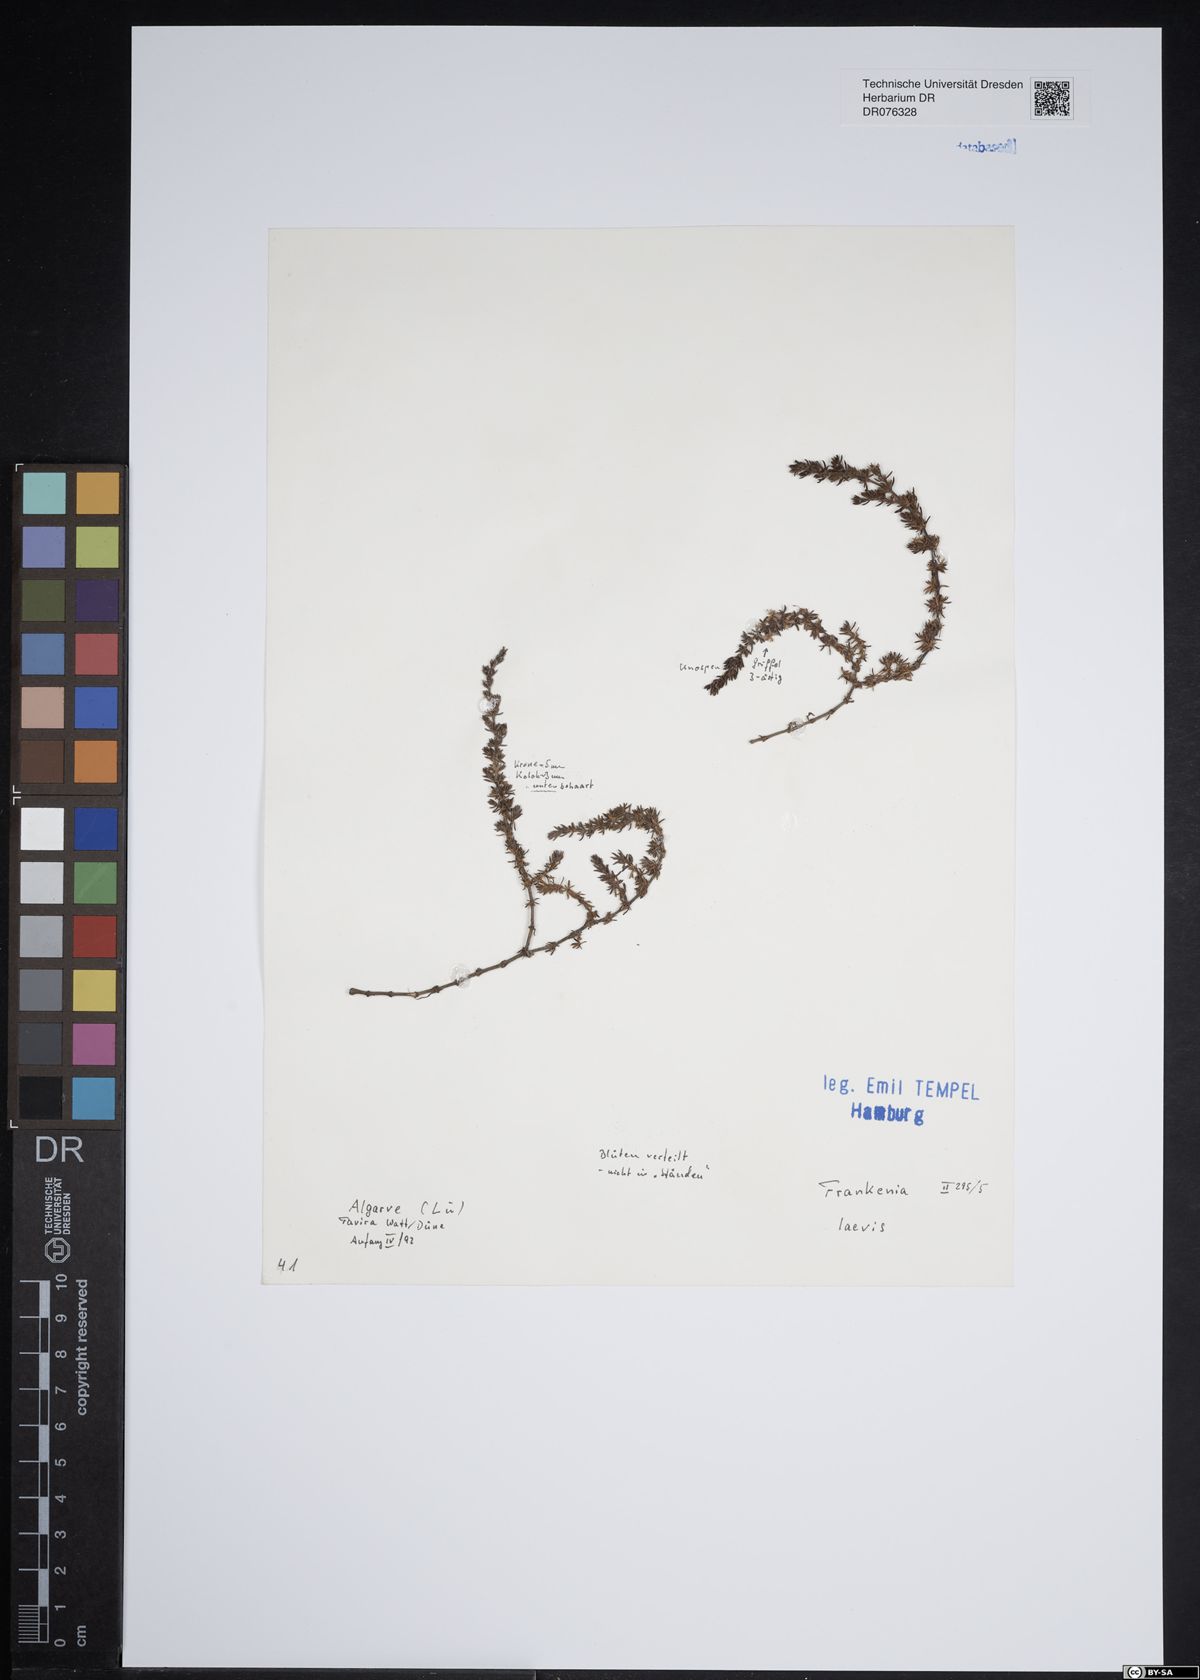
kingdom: Plantae
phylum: Tracheophyta
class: Magnoliopsida
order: Caryophyllales
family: Frankeniaceae
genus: Frankenia
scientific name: Frankenia laevis
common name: Sea-heath
